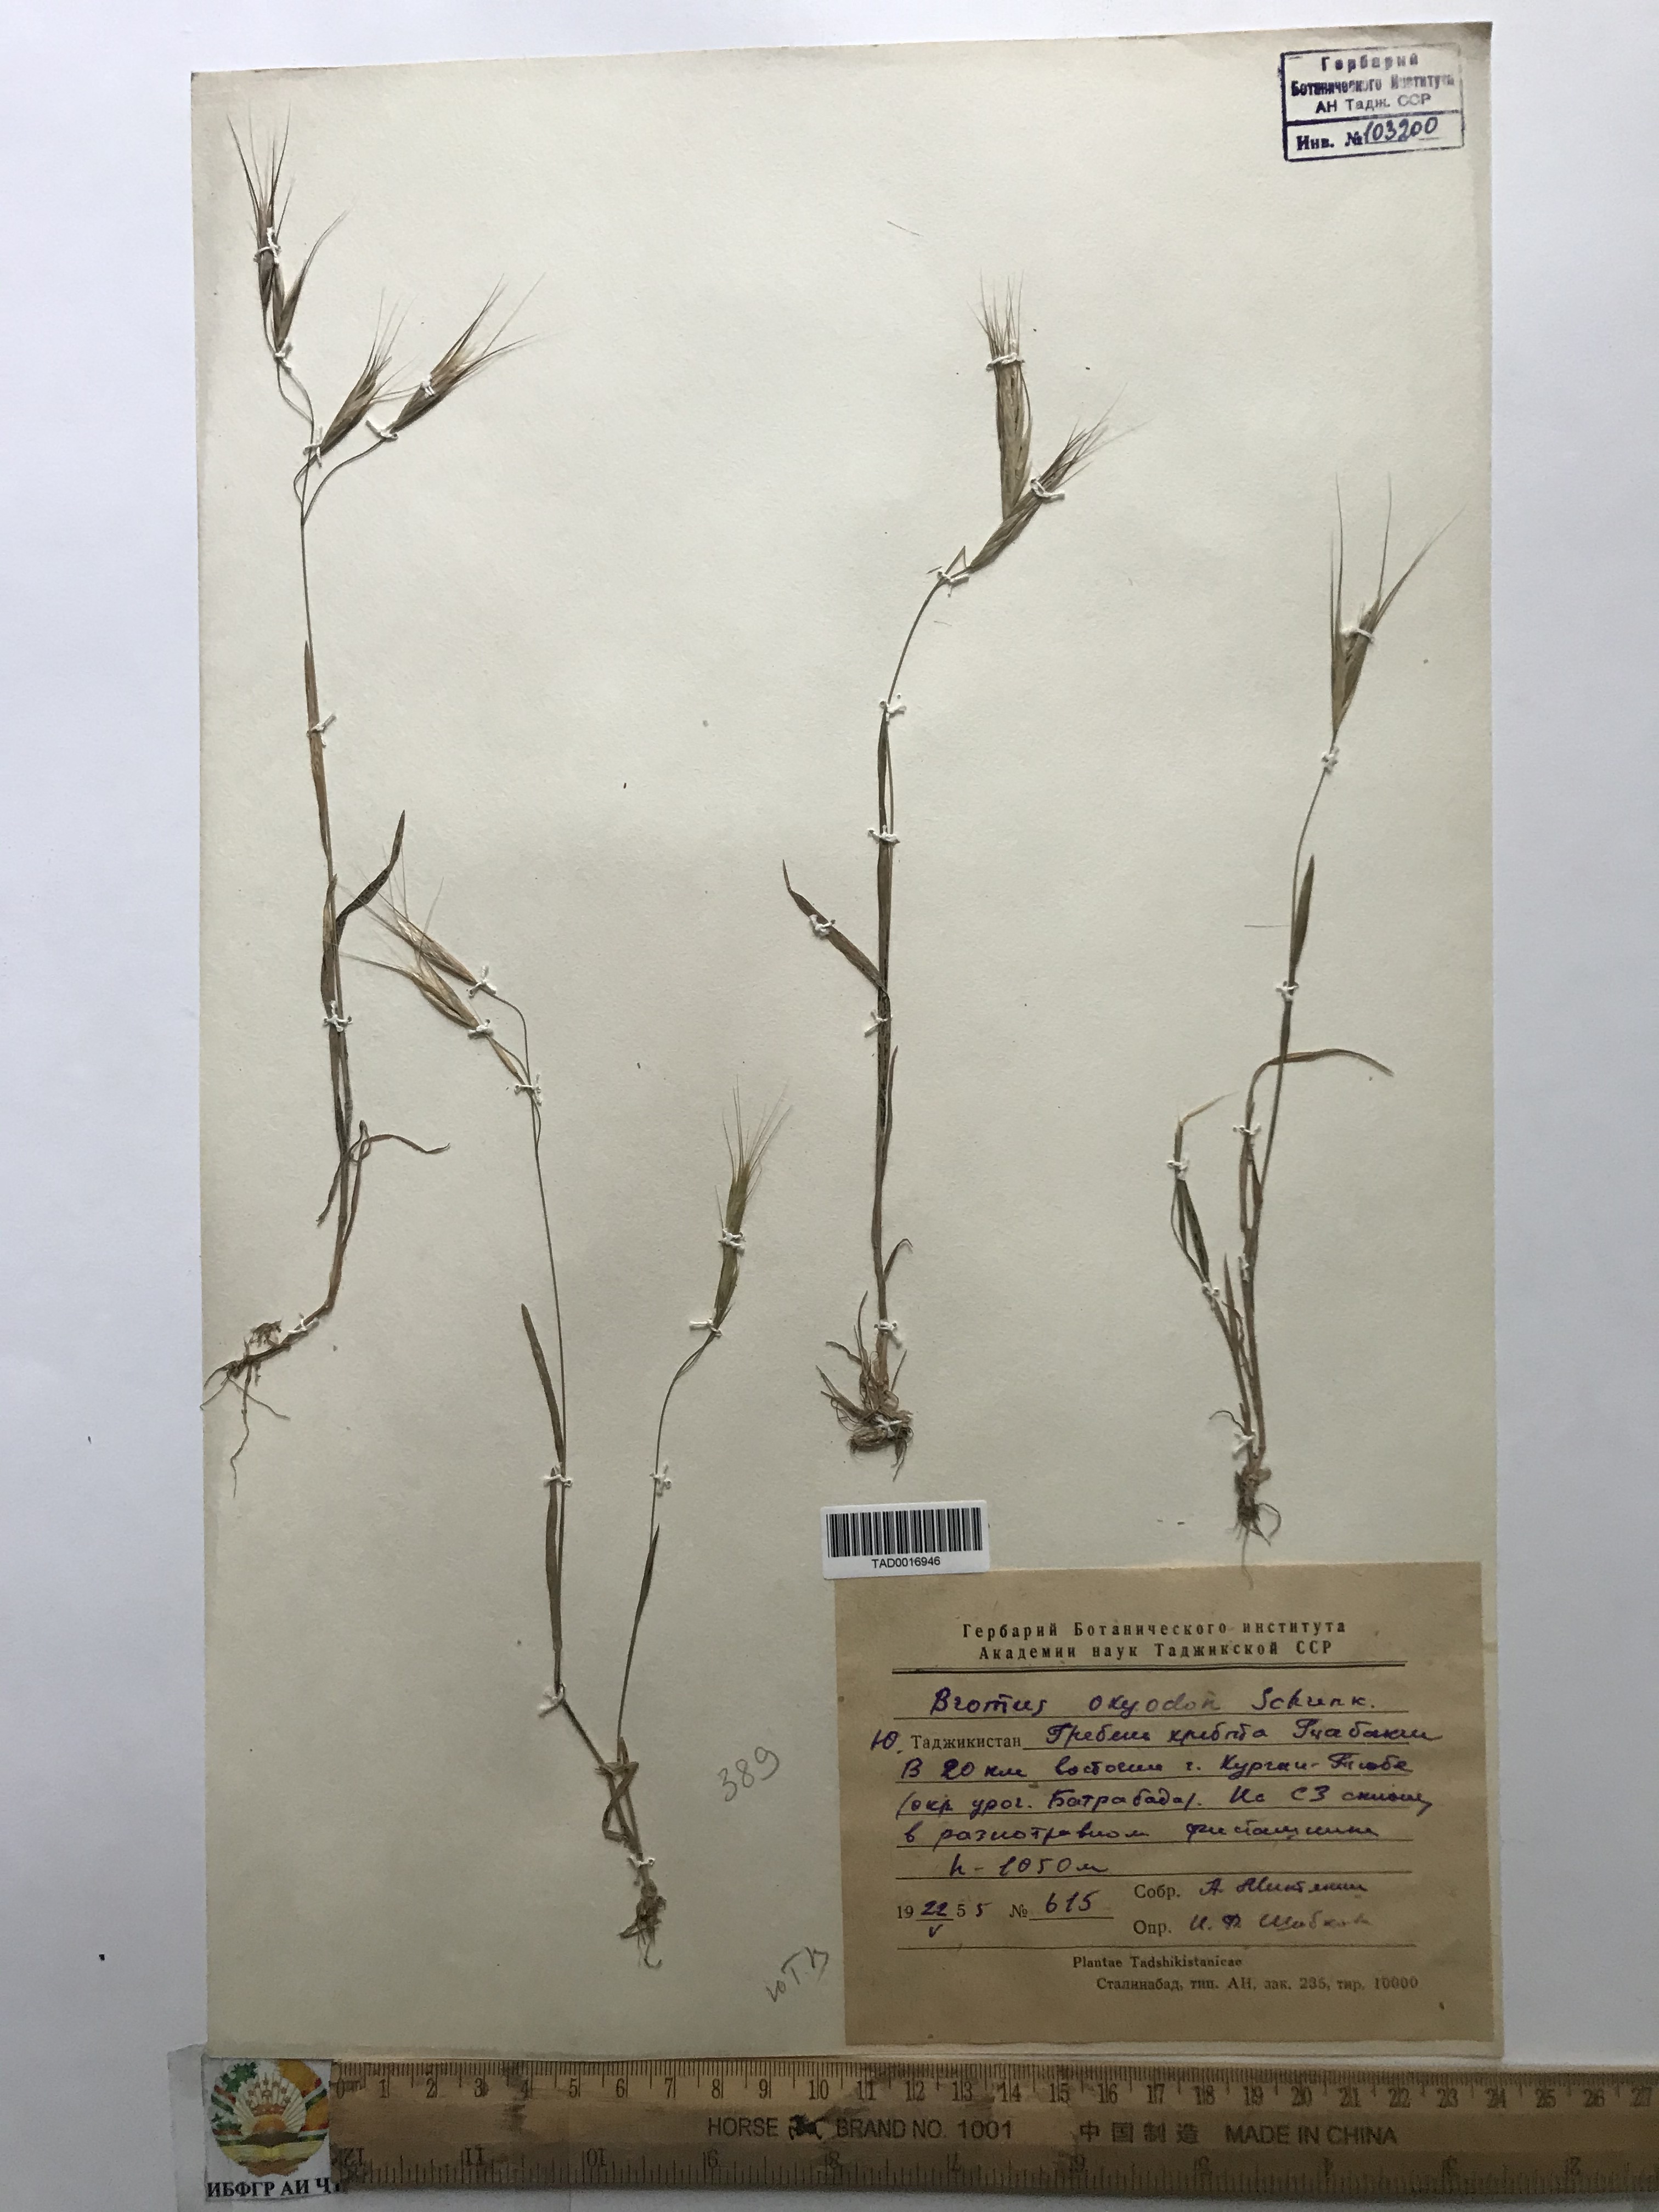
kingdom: Plantae
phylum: Tracheophyta
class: Liliopsida
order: Poales
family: Poaceae
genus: Bromus
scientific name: Bromus oxyodon
